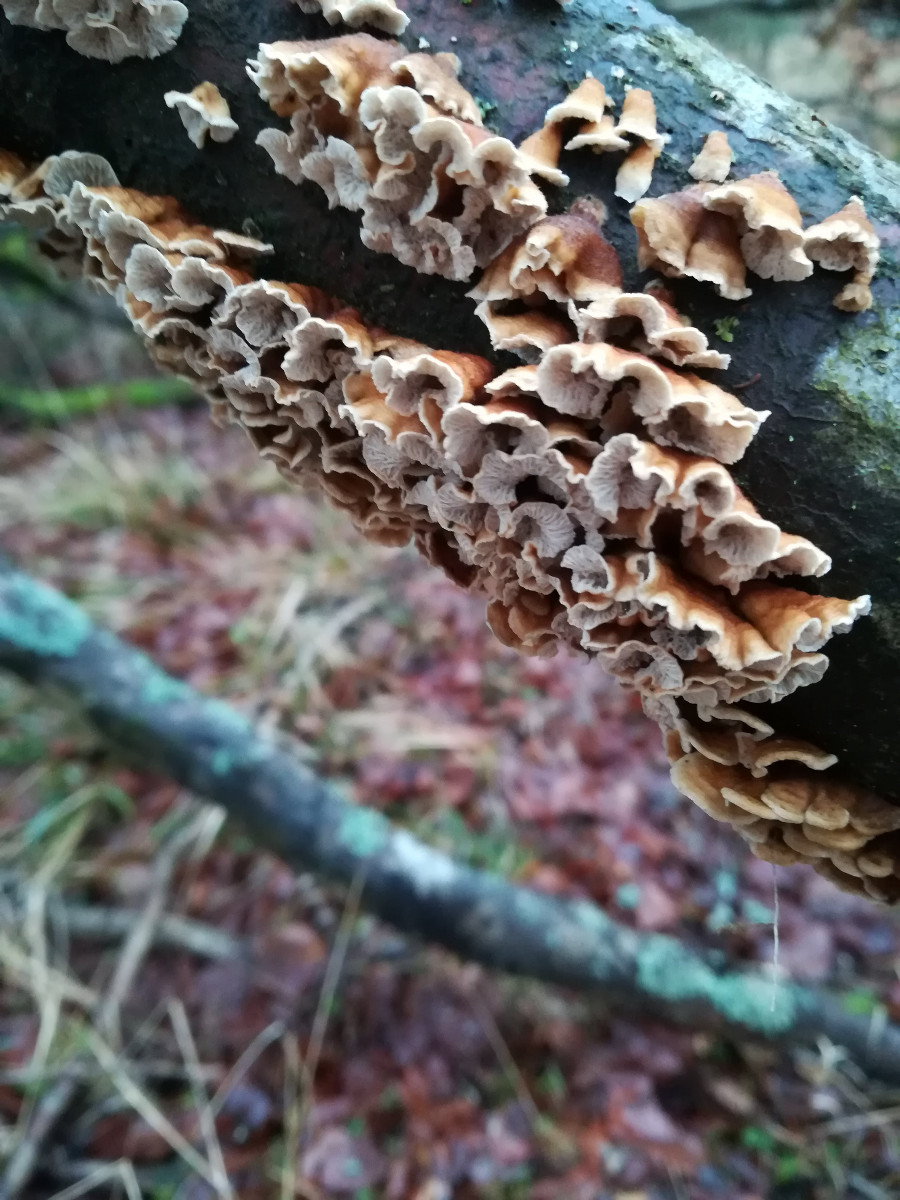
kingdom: Fungi
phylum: Basidiomycota
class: Agaricomycetes
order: Amylocorticiales
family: Amylocorticiaceae
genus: Plicaturopsis
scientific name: Plicaturopsis crispa
